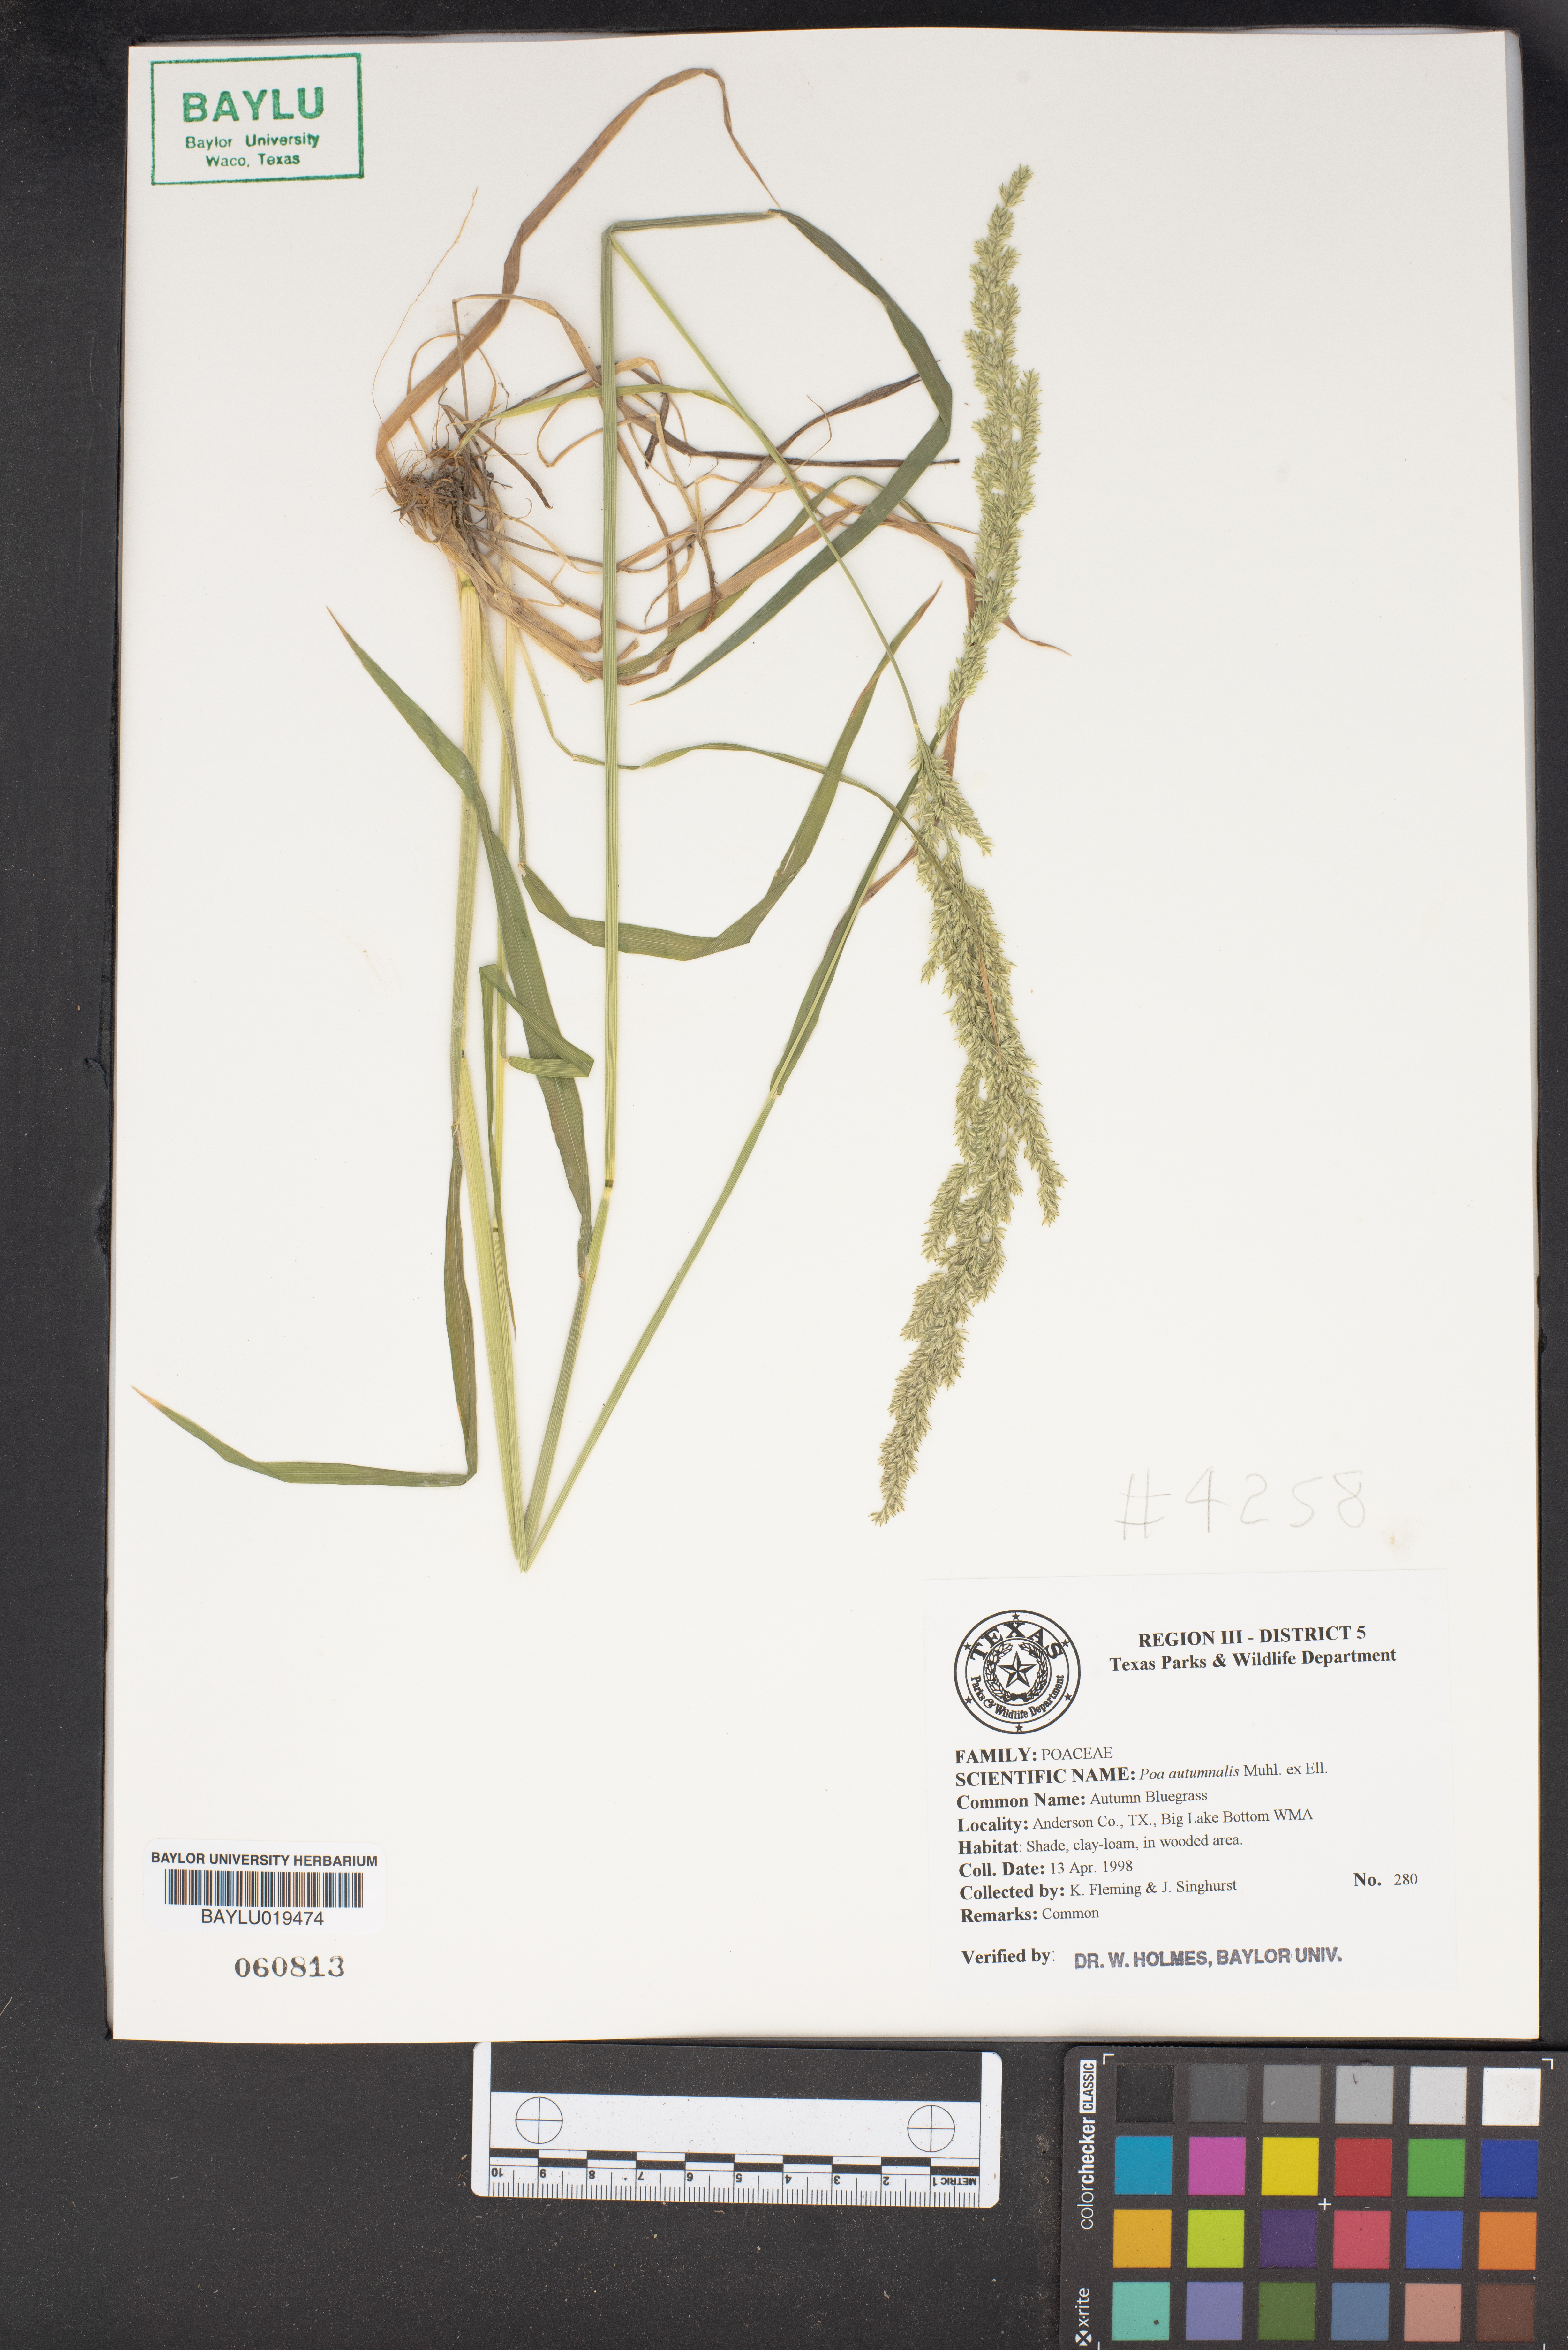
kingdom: Plantae
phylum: Tracheophyta
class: Liliopsida
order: Poales
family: Poaceae
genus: Poa
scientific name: Poa autumnalis
